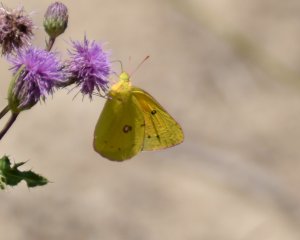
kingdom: Animalia
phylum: Arthropoda
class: Insecta
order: Lepidoptera
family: Pieridae
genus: Colias
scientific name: Colias eurytheme
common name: Orange Sulphur
